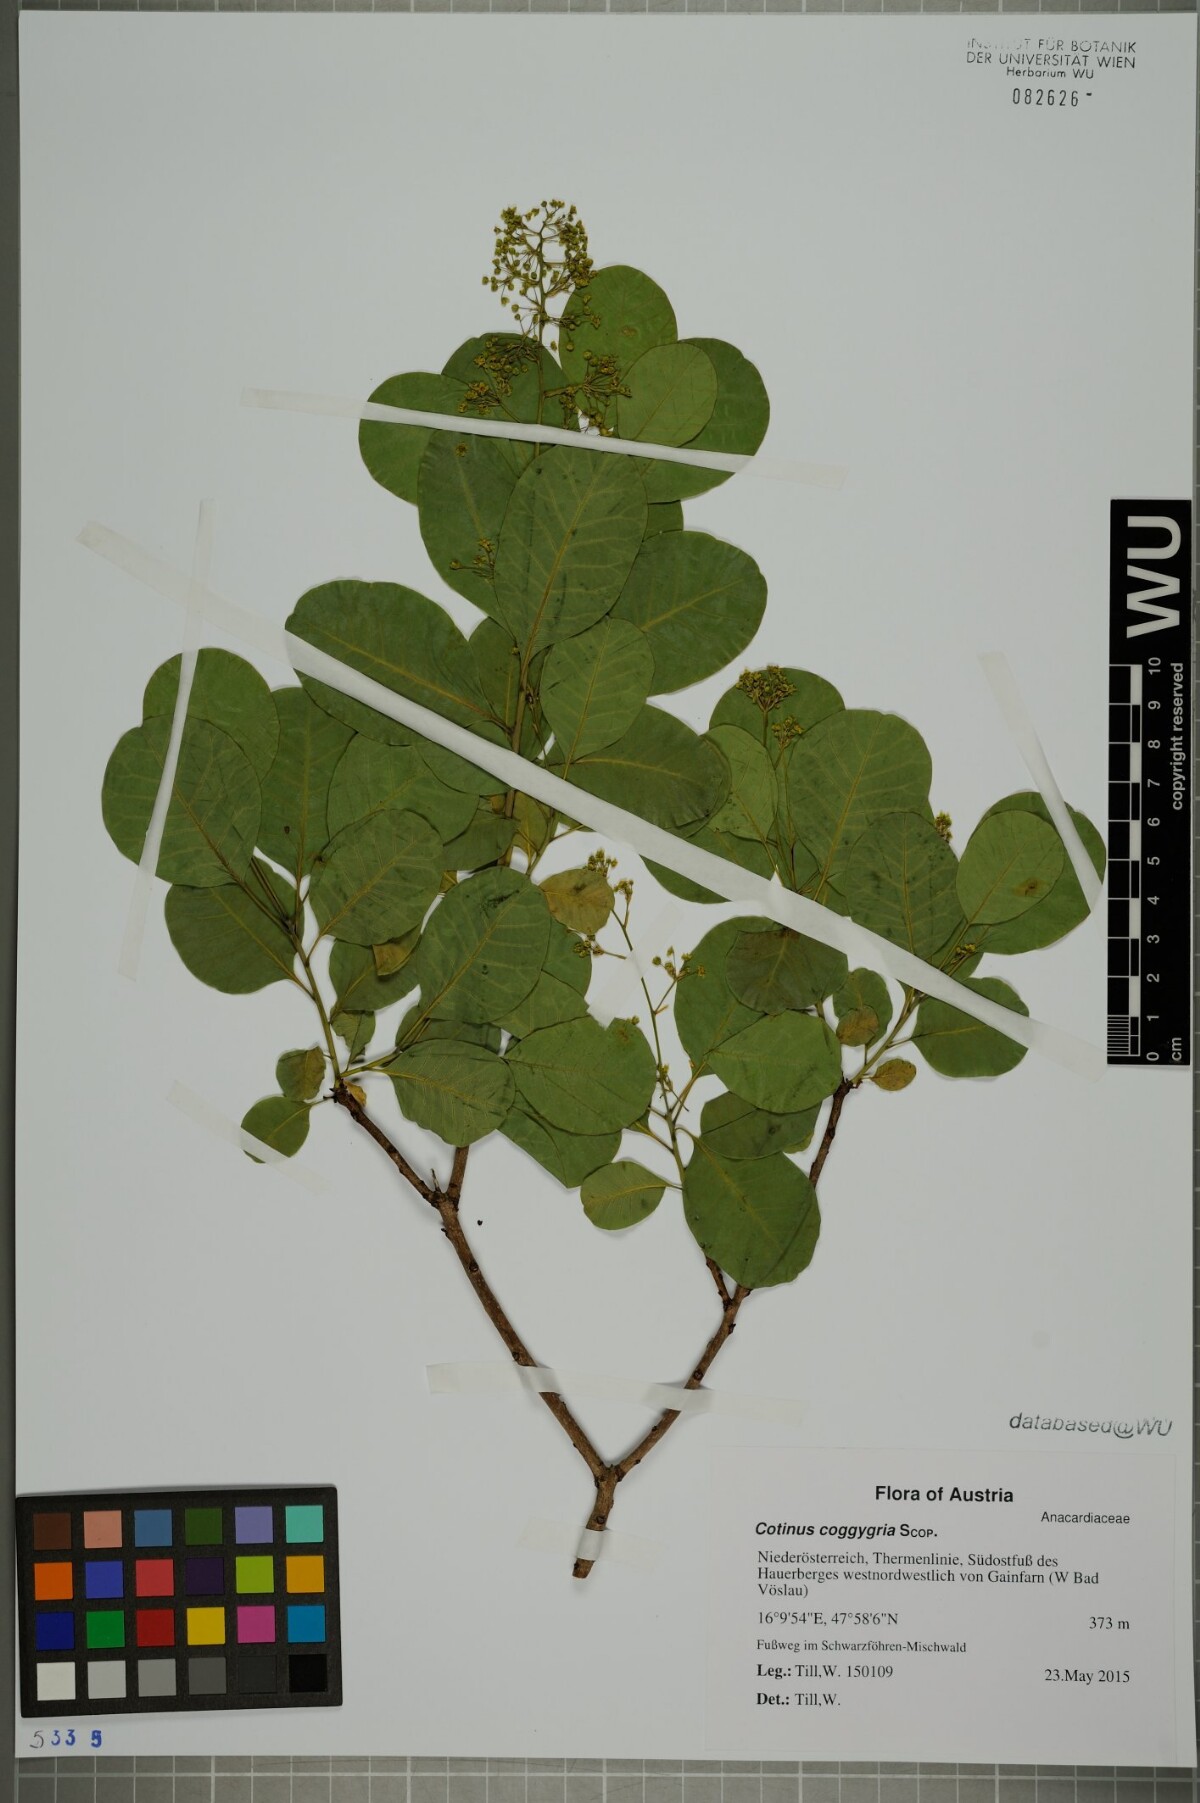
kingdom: Plantae
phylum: Tracheophyta
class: Magnoliopsida
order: Sapindales
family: Anacardiaceae
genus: Cotinus
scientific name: Cotinus coggygria
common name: Smoke-tree
